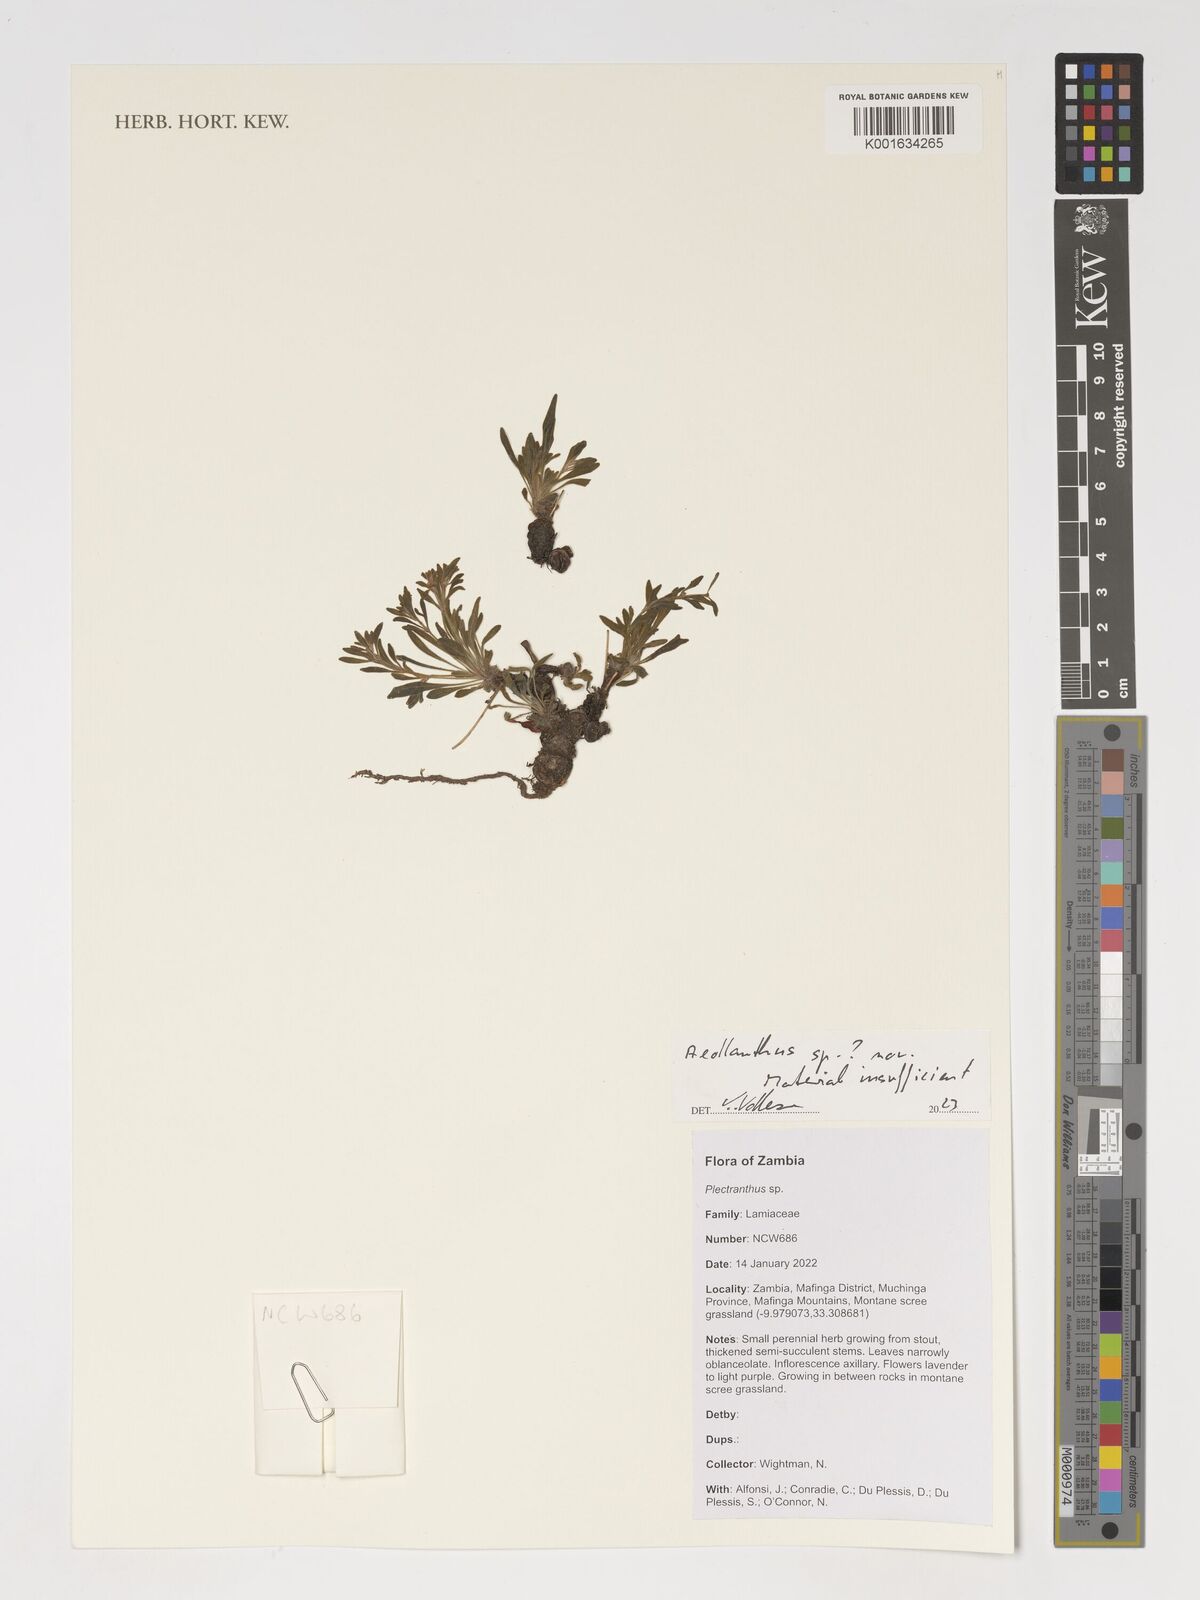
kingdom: Plantae
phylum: Tracheophyta
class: Magnoliopsida
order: Lamiales
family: Lamiaceae
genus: Aeollanthus
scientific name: Aeollanthus
